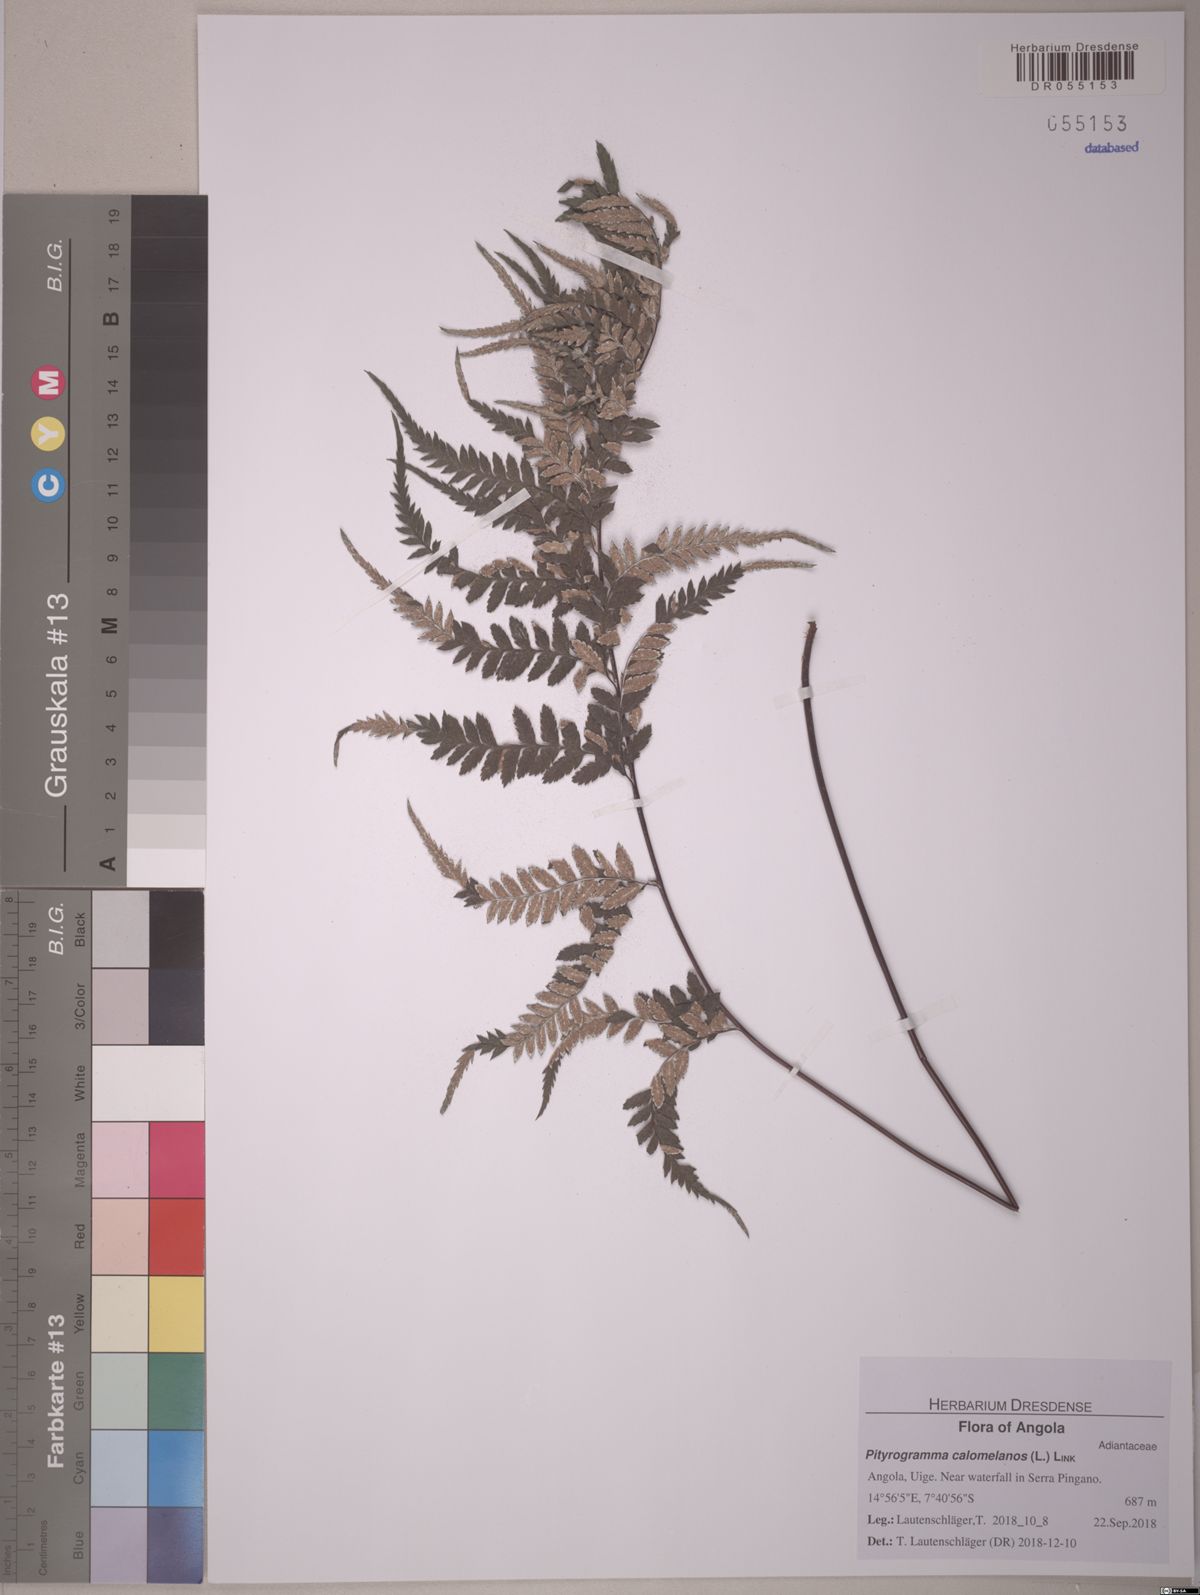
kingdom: Plantae
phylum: Tracheophyta
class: Polypodiopsida
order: Polypodiales
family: Pteridaceae
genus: Pityrogramma
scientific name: Pityrogramma calomelanos
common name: Dixie silverback fern
